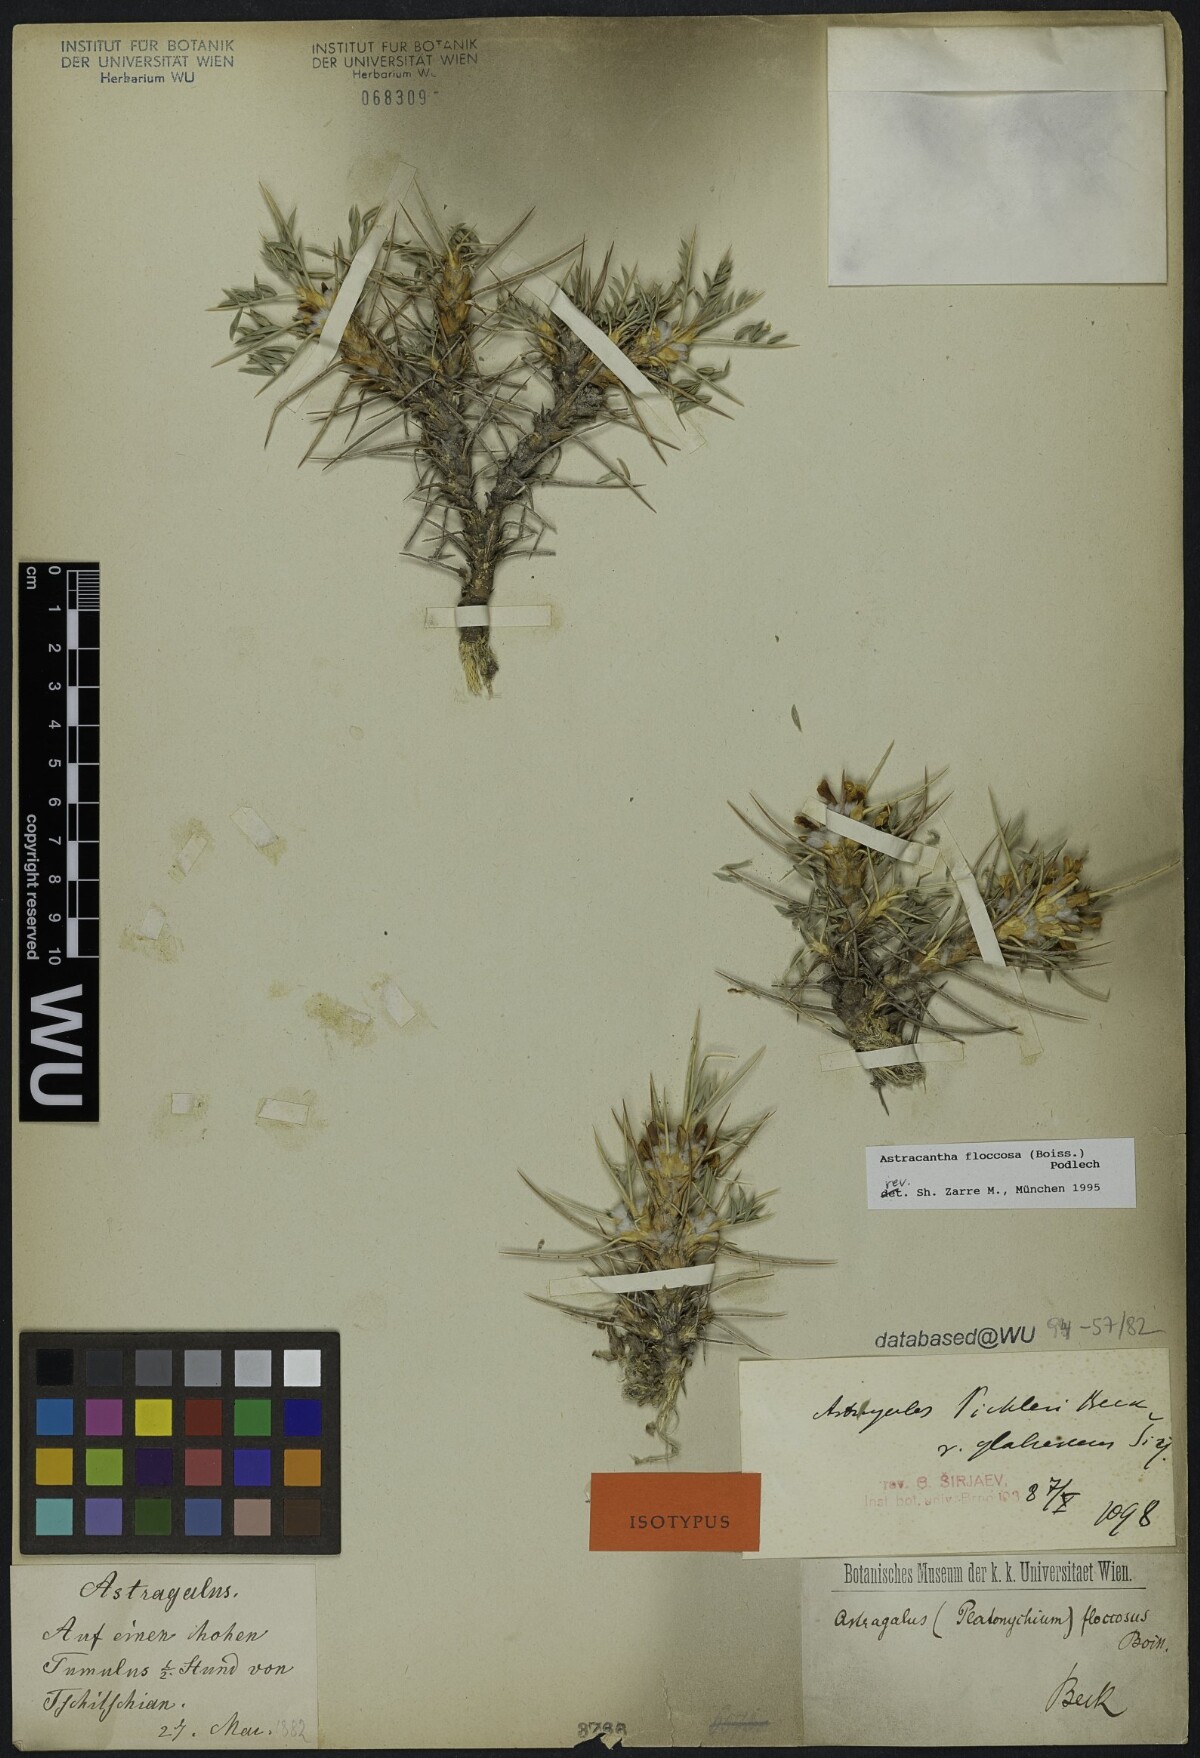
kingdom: Plantae
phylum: Tracheophyta
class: Magnoliopsida
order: Fabales
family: Fabaceae
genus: Astragalus
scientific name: Astragalus floccosus
